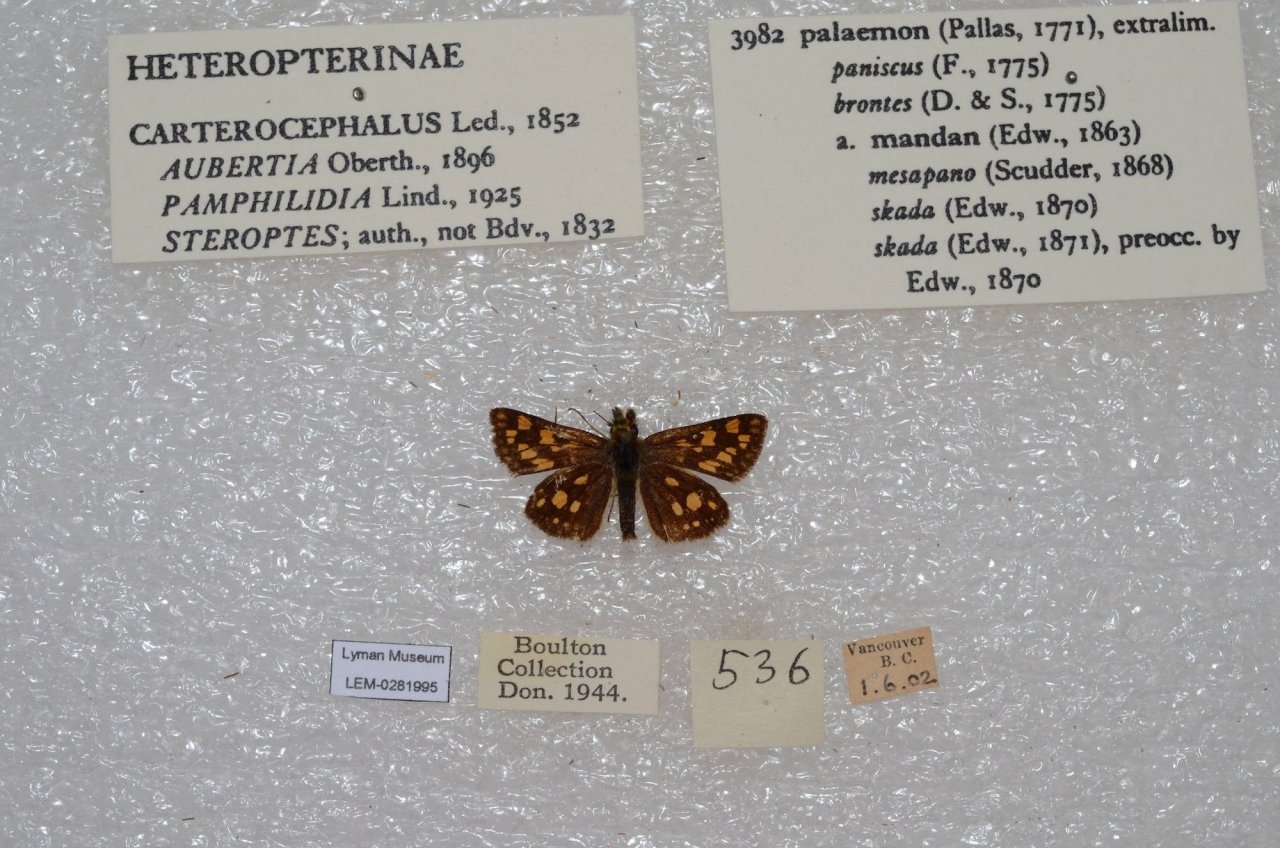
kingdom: Animalia
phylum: Arthropoda
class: Insecta
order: Lepidoptera
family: Hesperiidae
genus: Carterocephalus
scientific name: Carterocephalus palaemon
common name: Chequered Skipper
